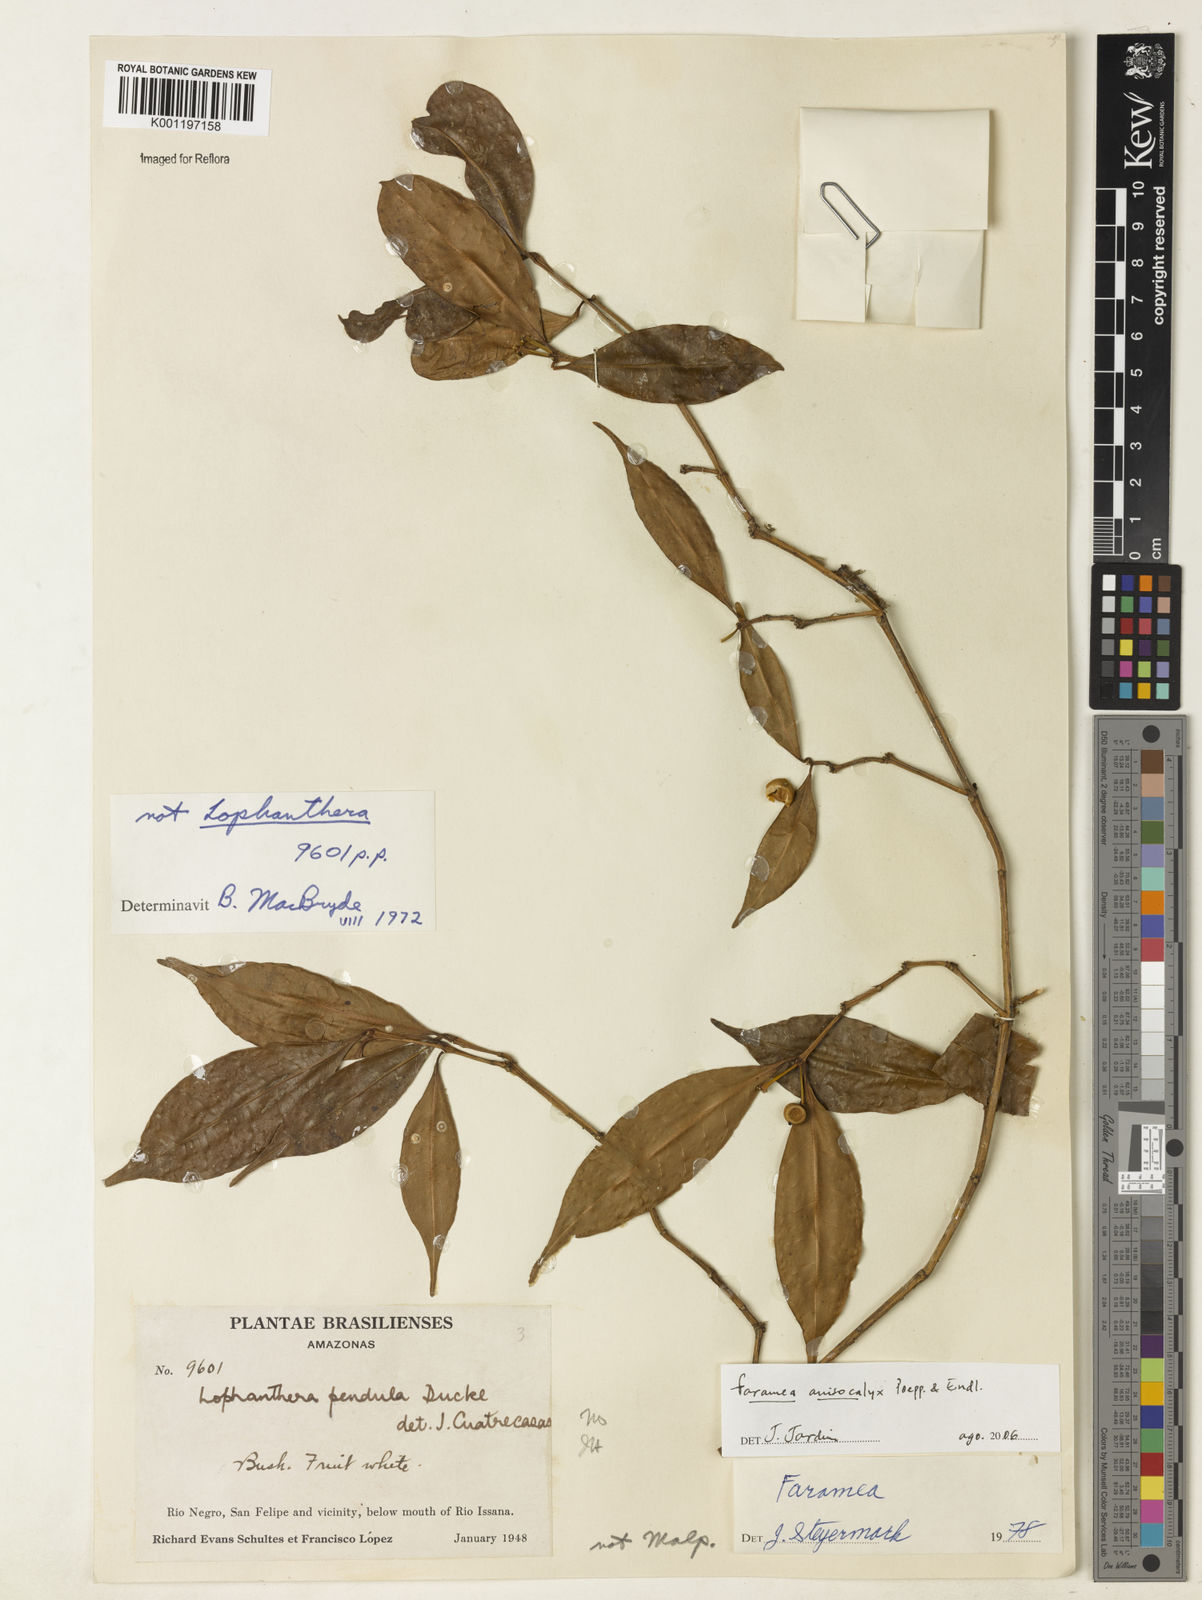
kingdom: Plantae
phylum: Tracheophyta
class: Magnoliopsida
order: Gentianales
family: Rubiaceae
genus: Faramea
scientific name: Faramea anisocalyx
